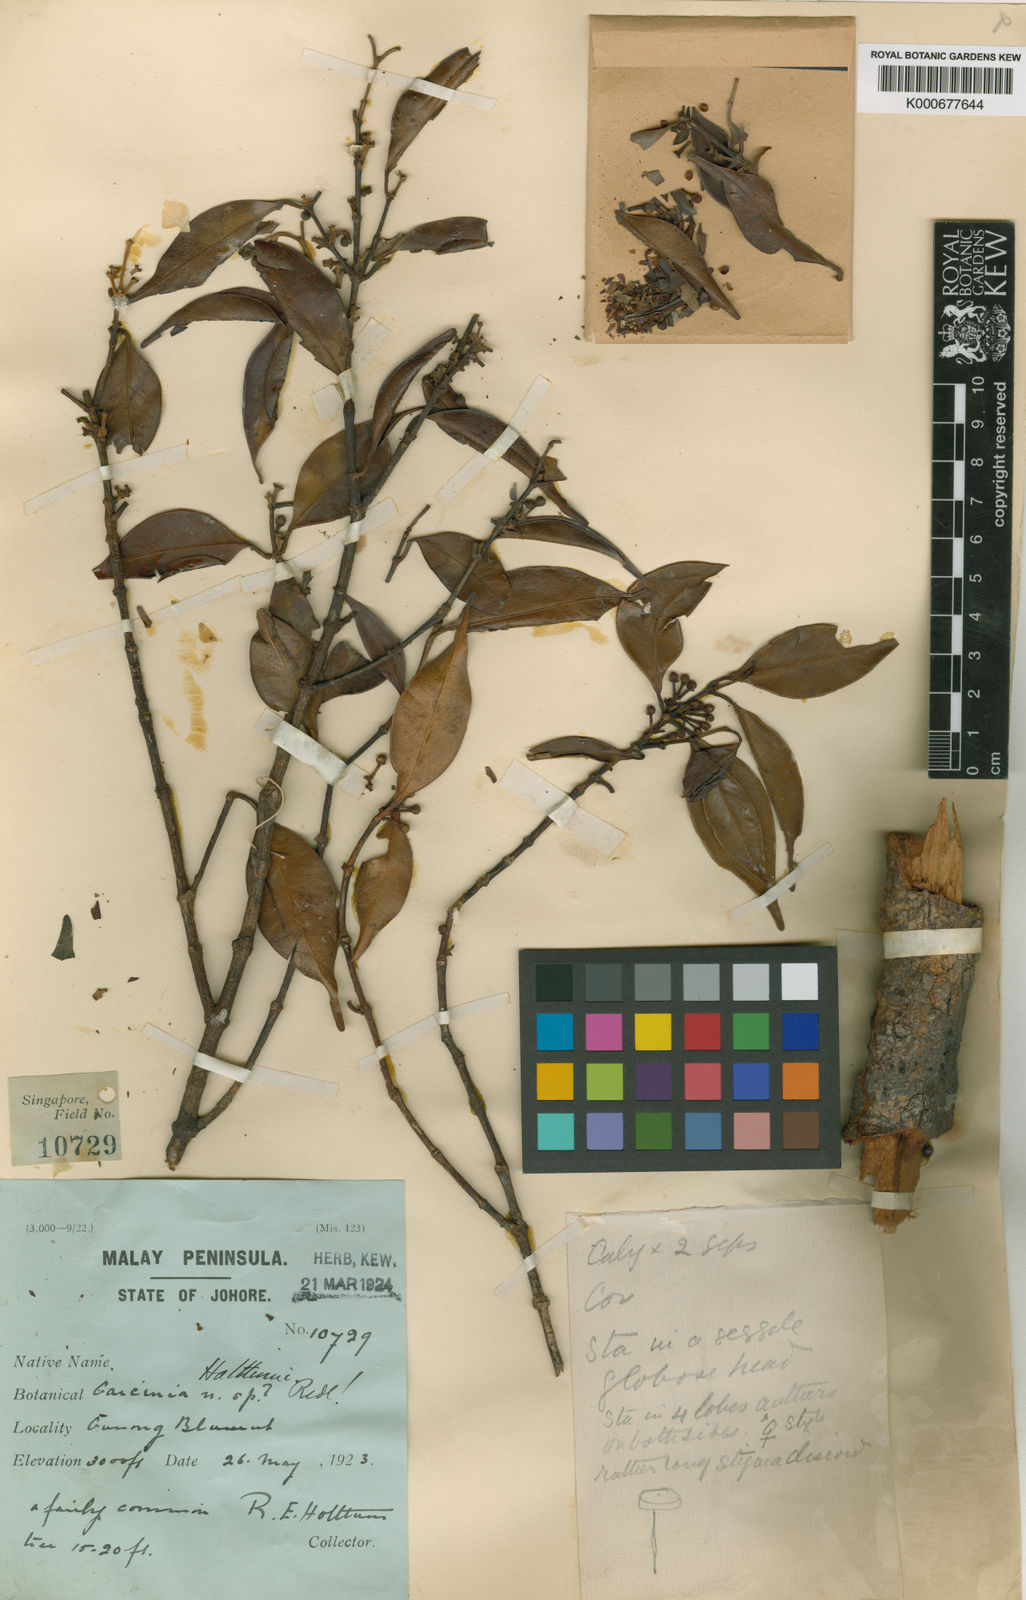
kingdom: Plantae
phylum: Tracheophyta
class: Magnoliopsida
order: Malpighiales
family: Clusiaceae
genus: Garcinia
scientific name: Garcinia holttumii
